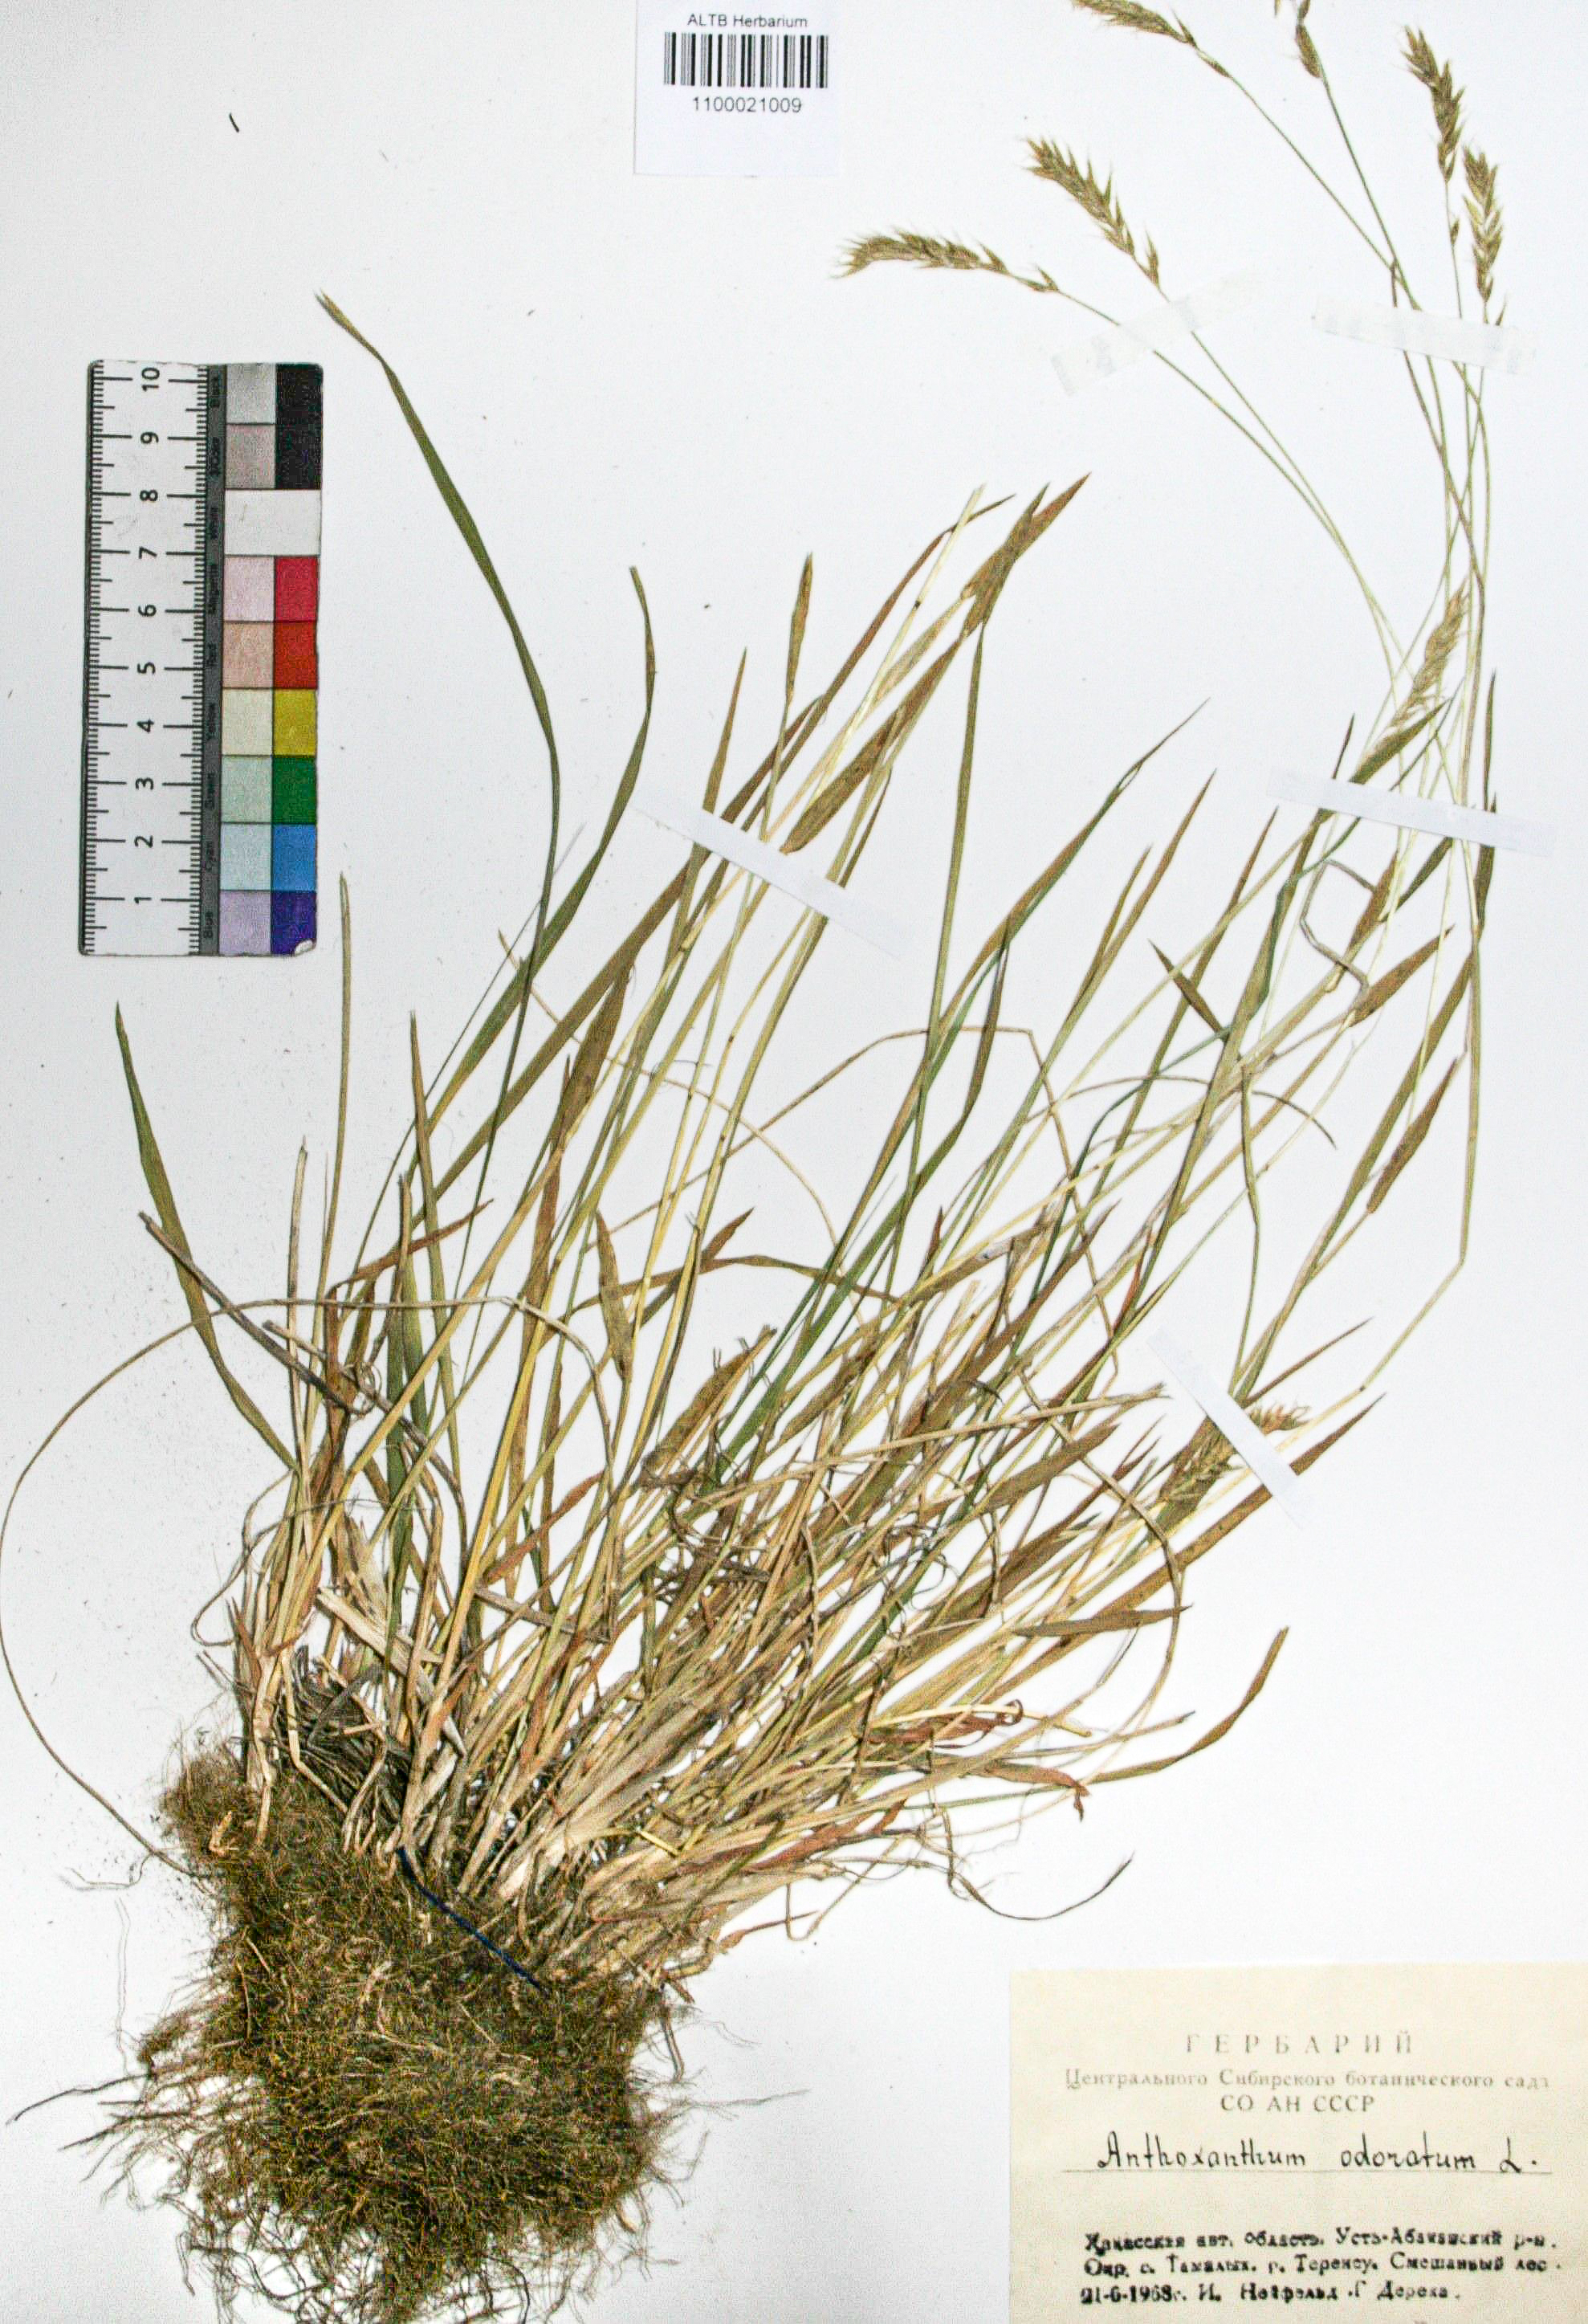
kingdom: Plantae
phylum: Tracheophyta
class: Liliopsida
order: Poales
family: Poaceae
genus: Anthoxanthum
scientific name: Anthoxanthum odoratum
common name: Sweet vernalgrass
